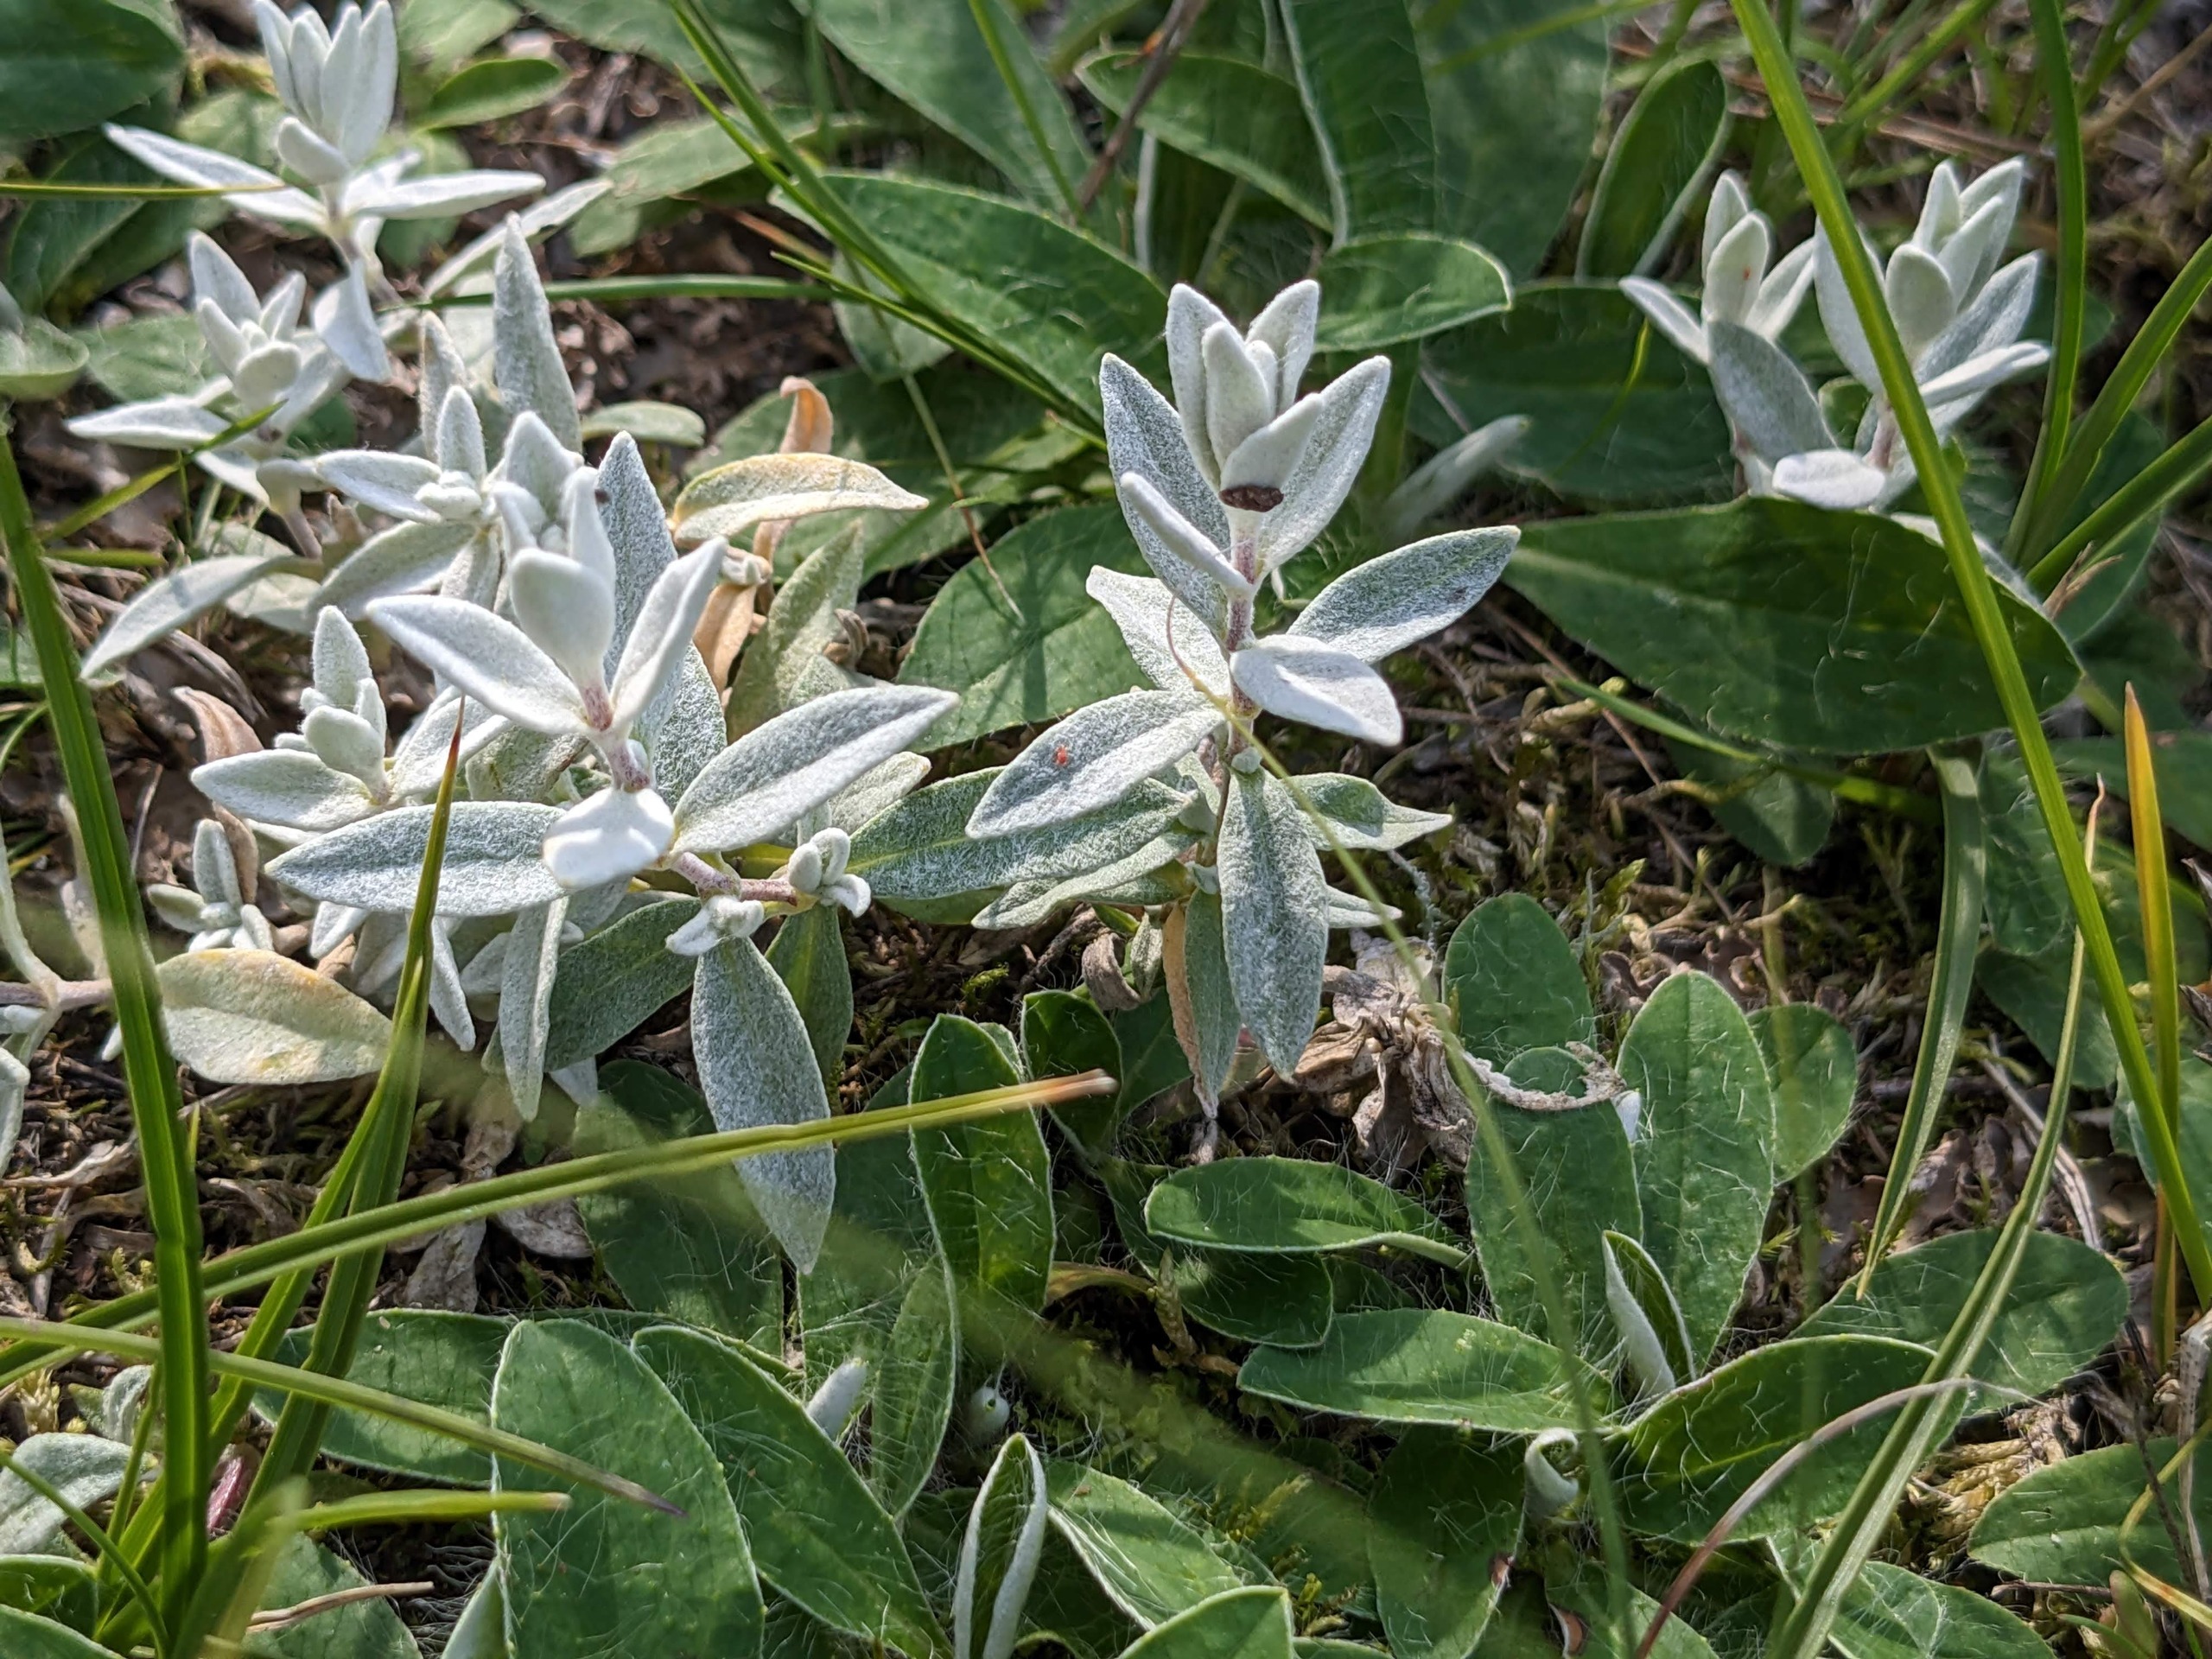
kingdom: Plantae
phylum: Tracheophyta
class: Magnoliopsida
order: Caryophyllales
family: Caryophyllaceae
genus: Cerastium
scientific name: Cerastium tomentosum
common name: Filtet hønsetarm
